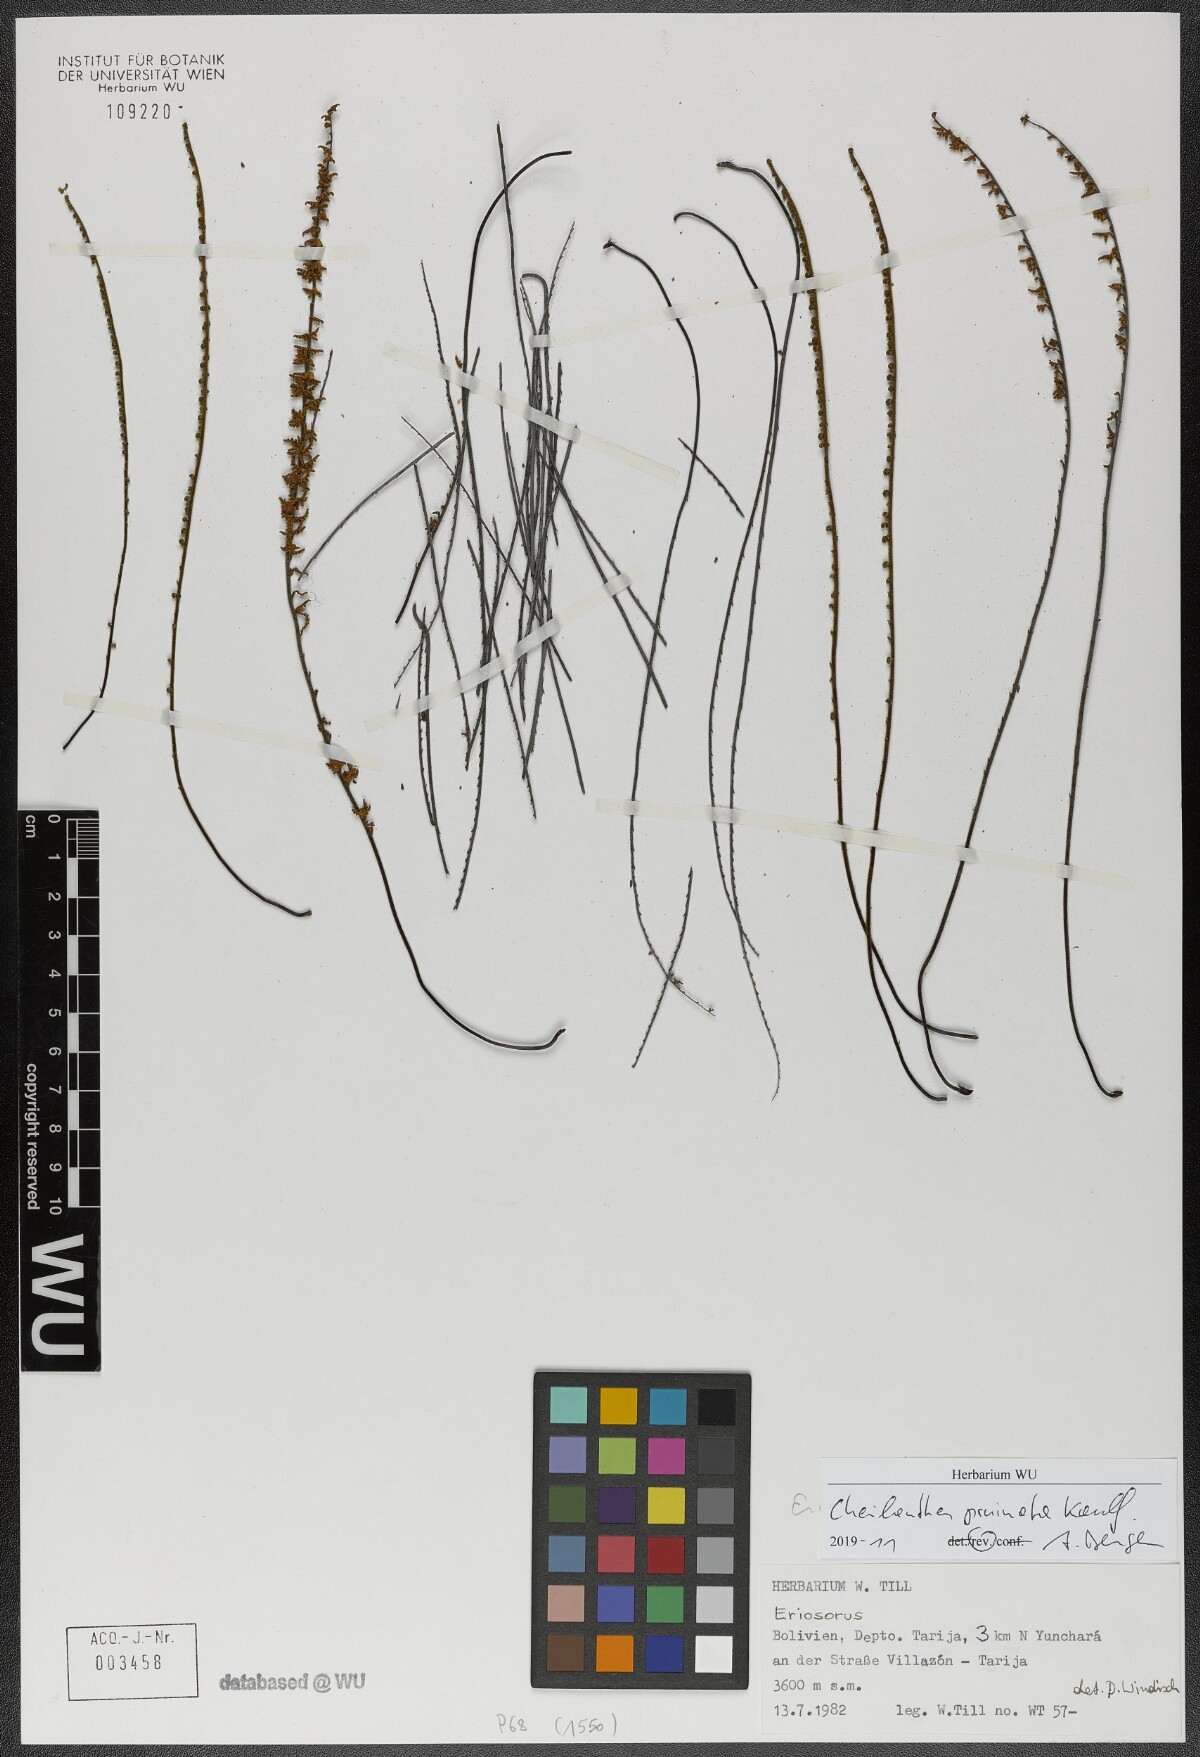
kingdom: Plantae
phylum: Tracheophyta
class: Polypodiopsida
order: Polypodiales
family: Pteridaceae
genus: Cheilanthes
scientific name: Cheilanthes pruinata
